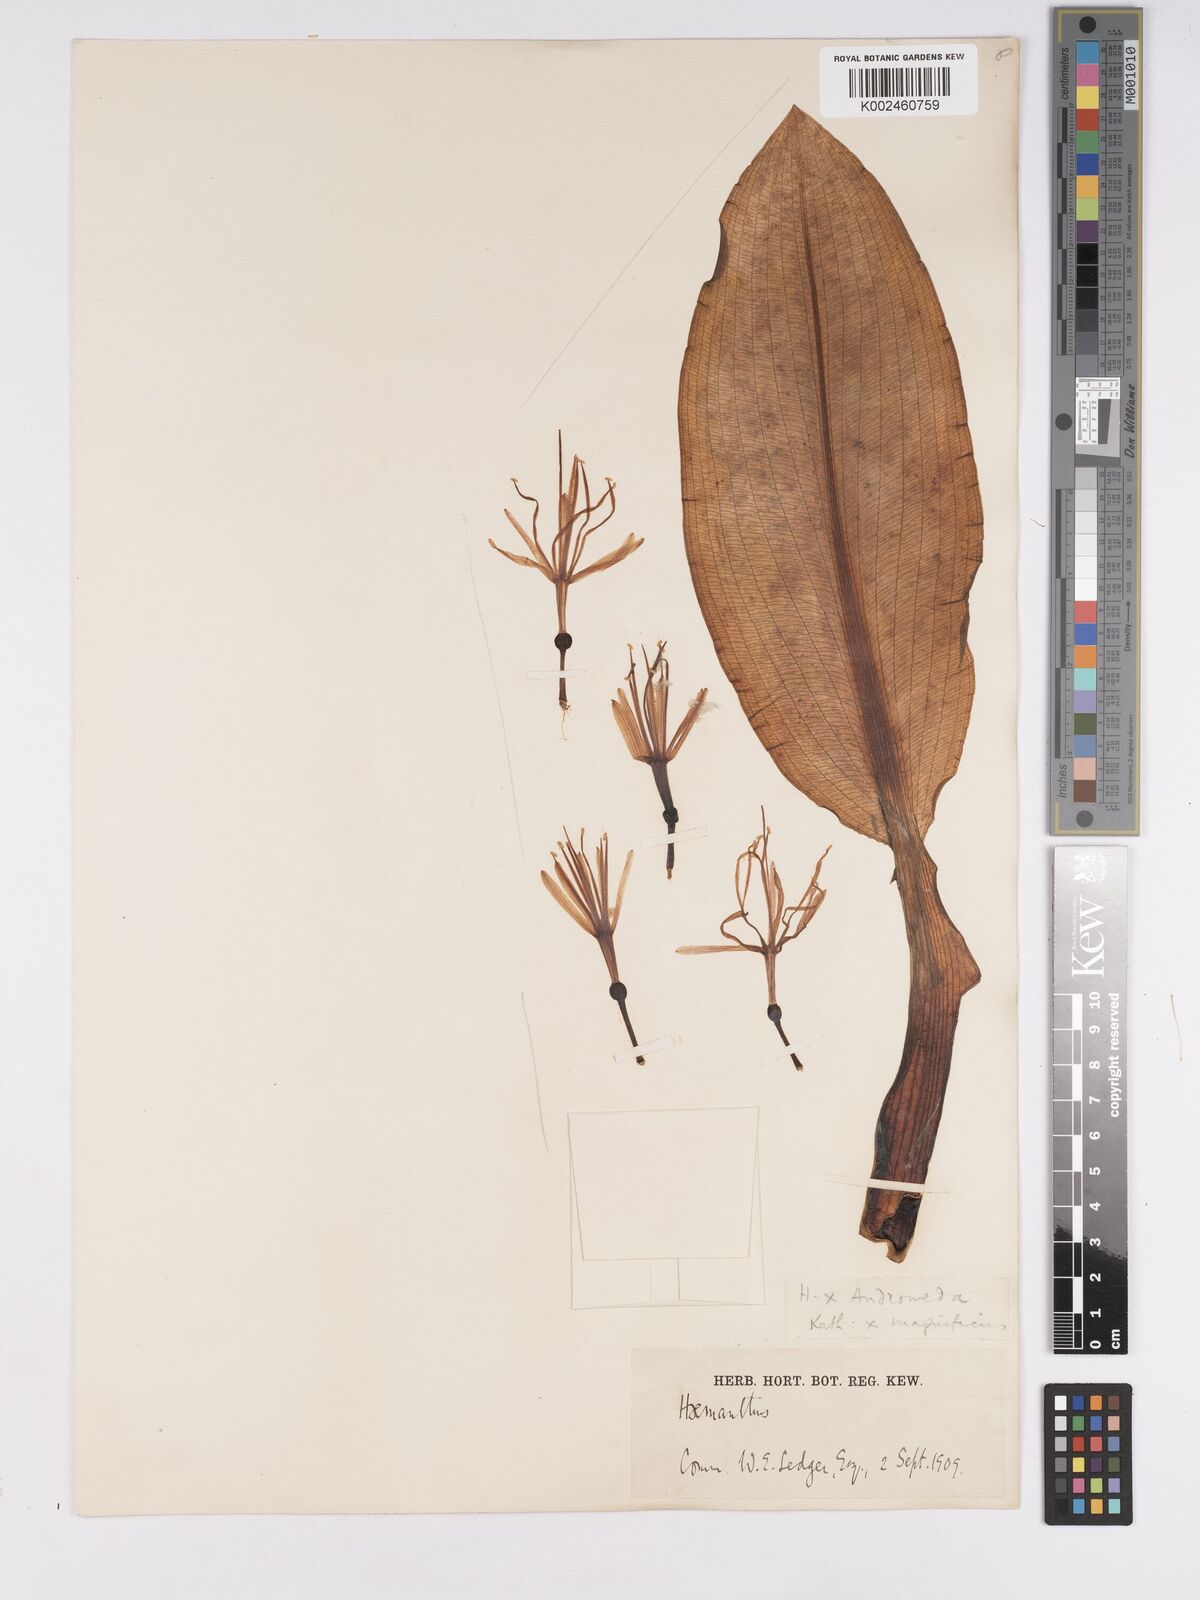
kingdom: Plantae
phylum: Tracheophyta
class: Liliopsida
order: Asparagales
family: Amaryllidaceae
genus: Scadoxus
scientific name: Scadoxus
